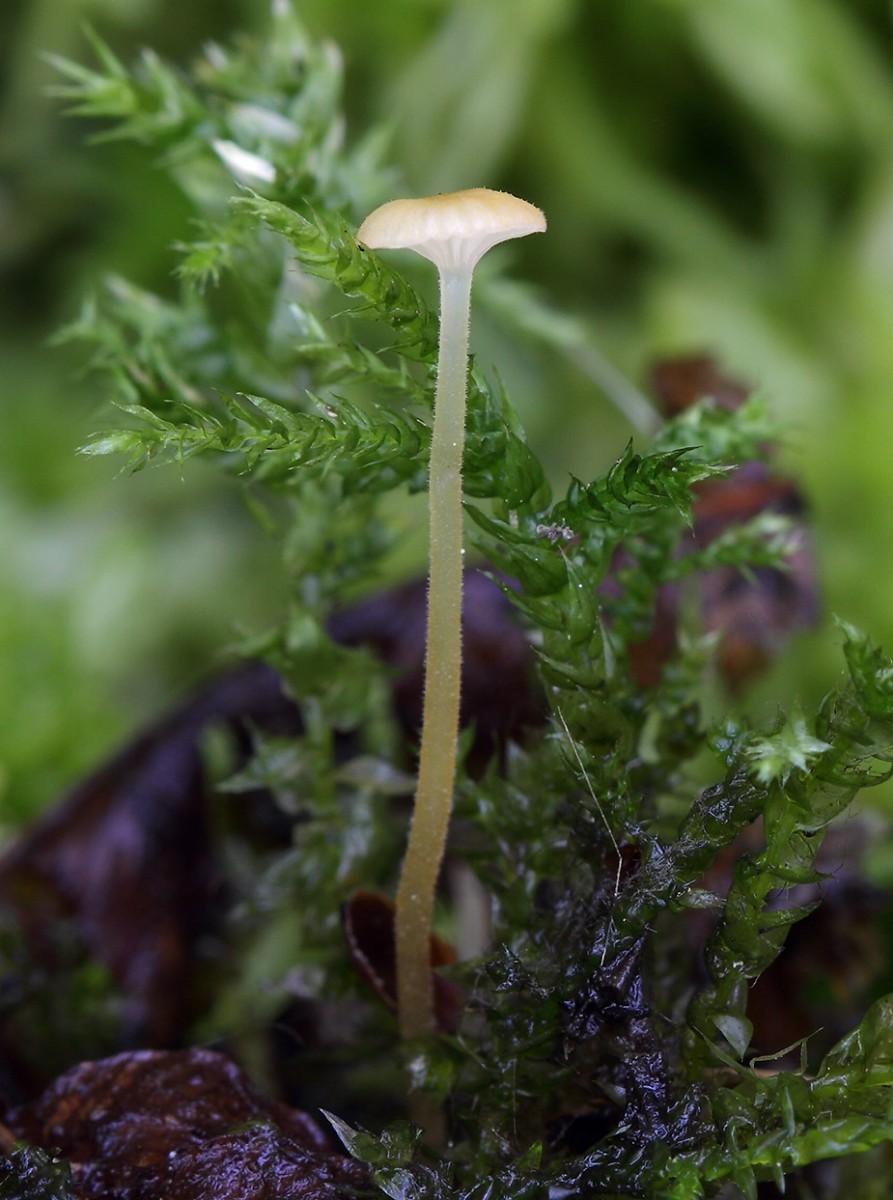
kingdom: Fungi
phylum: Basidiomycota
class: Agaricomycetes
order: Hymenochaetales
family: Rickenellaceae
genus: Rickenella
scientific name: Rickenella fibula
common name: orange mosnavlehat
